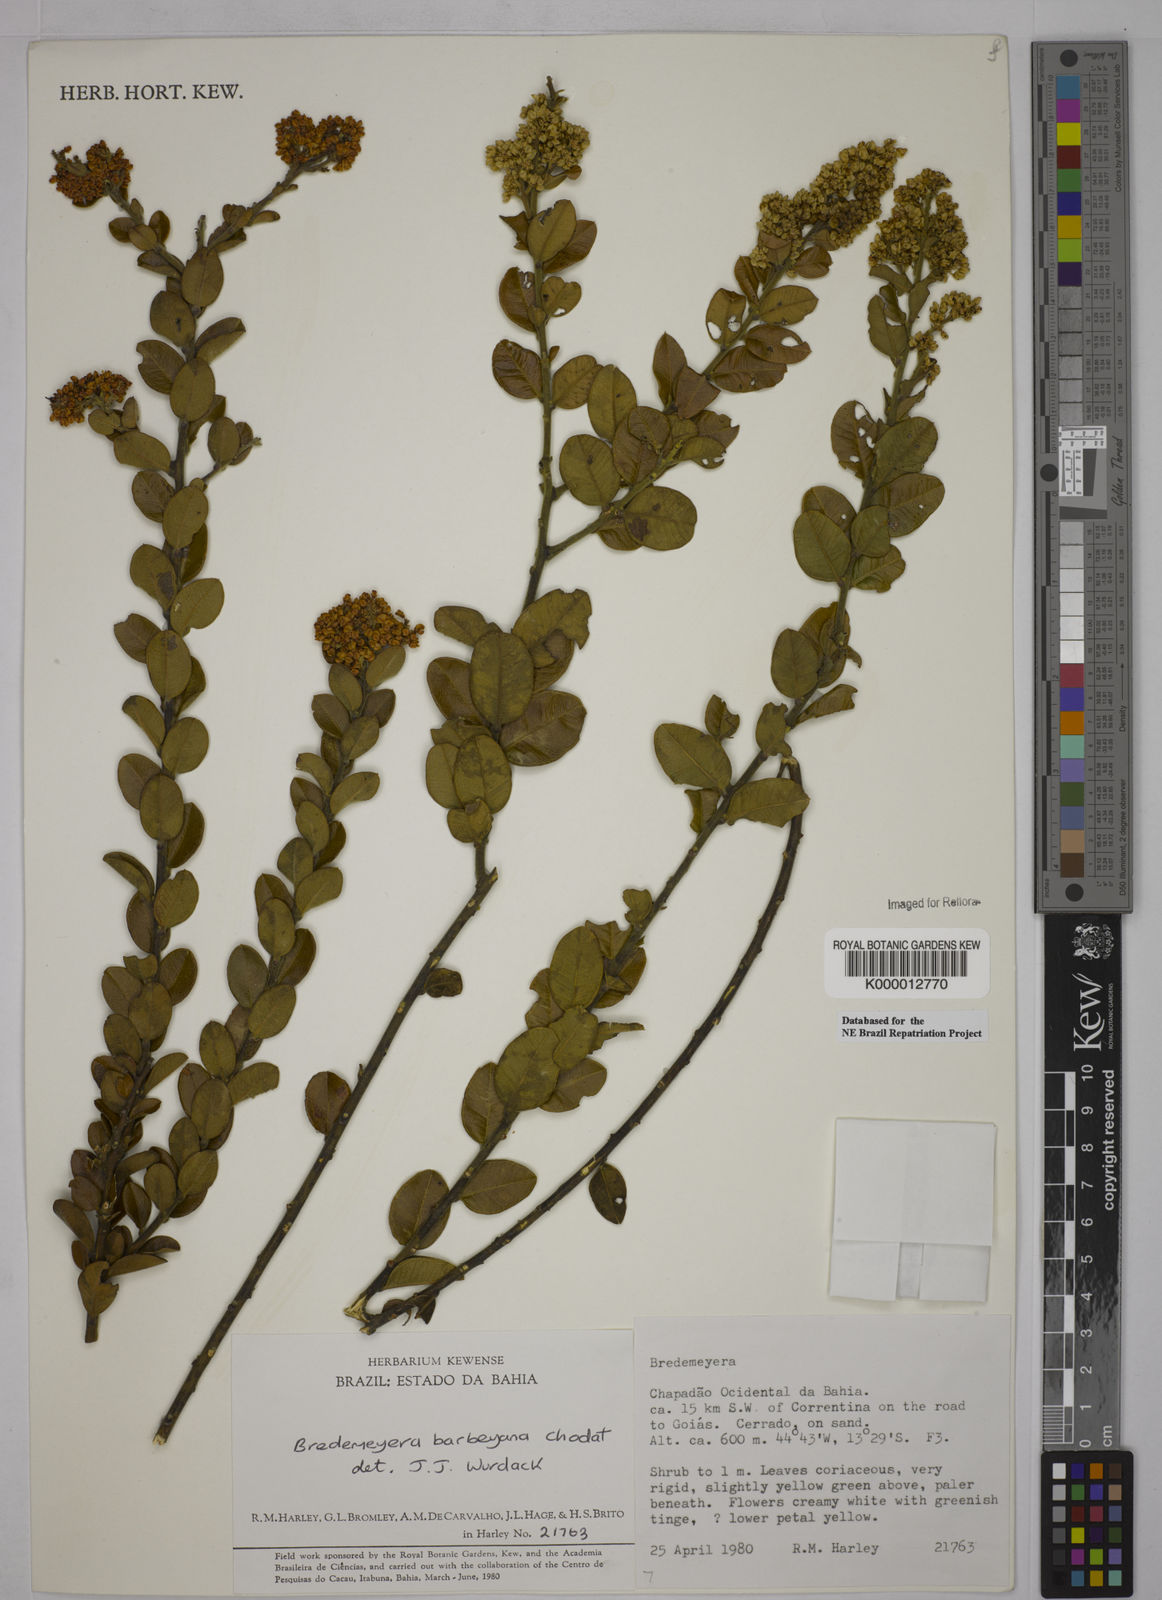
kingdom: Plantae
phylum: Tracheophyta
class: Magnoliopsida
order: Fabales
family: Polygalaceae
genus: Bredemeyera
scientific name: Bredemeyera barbeyana
